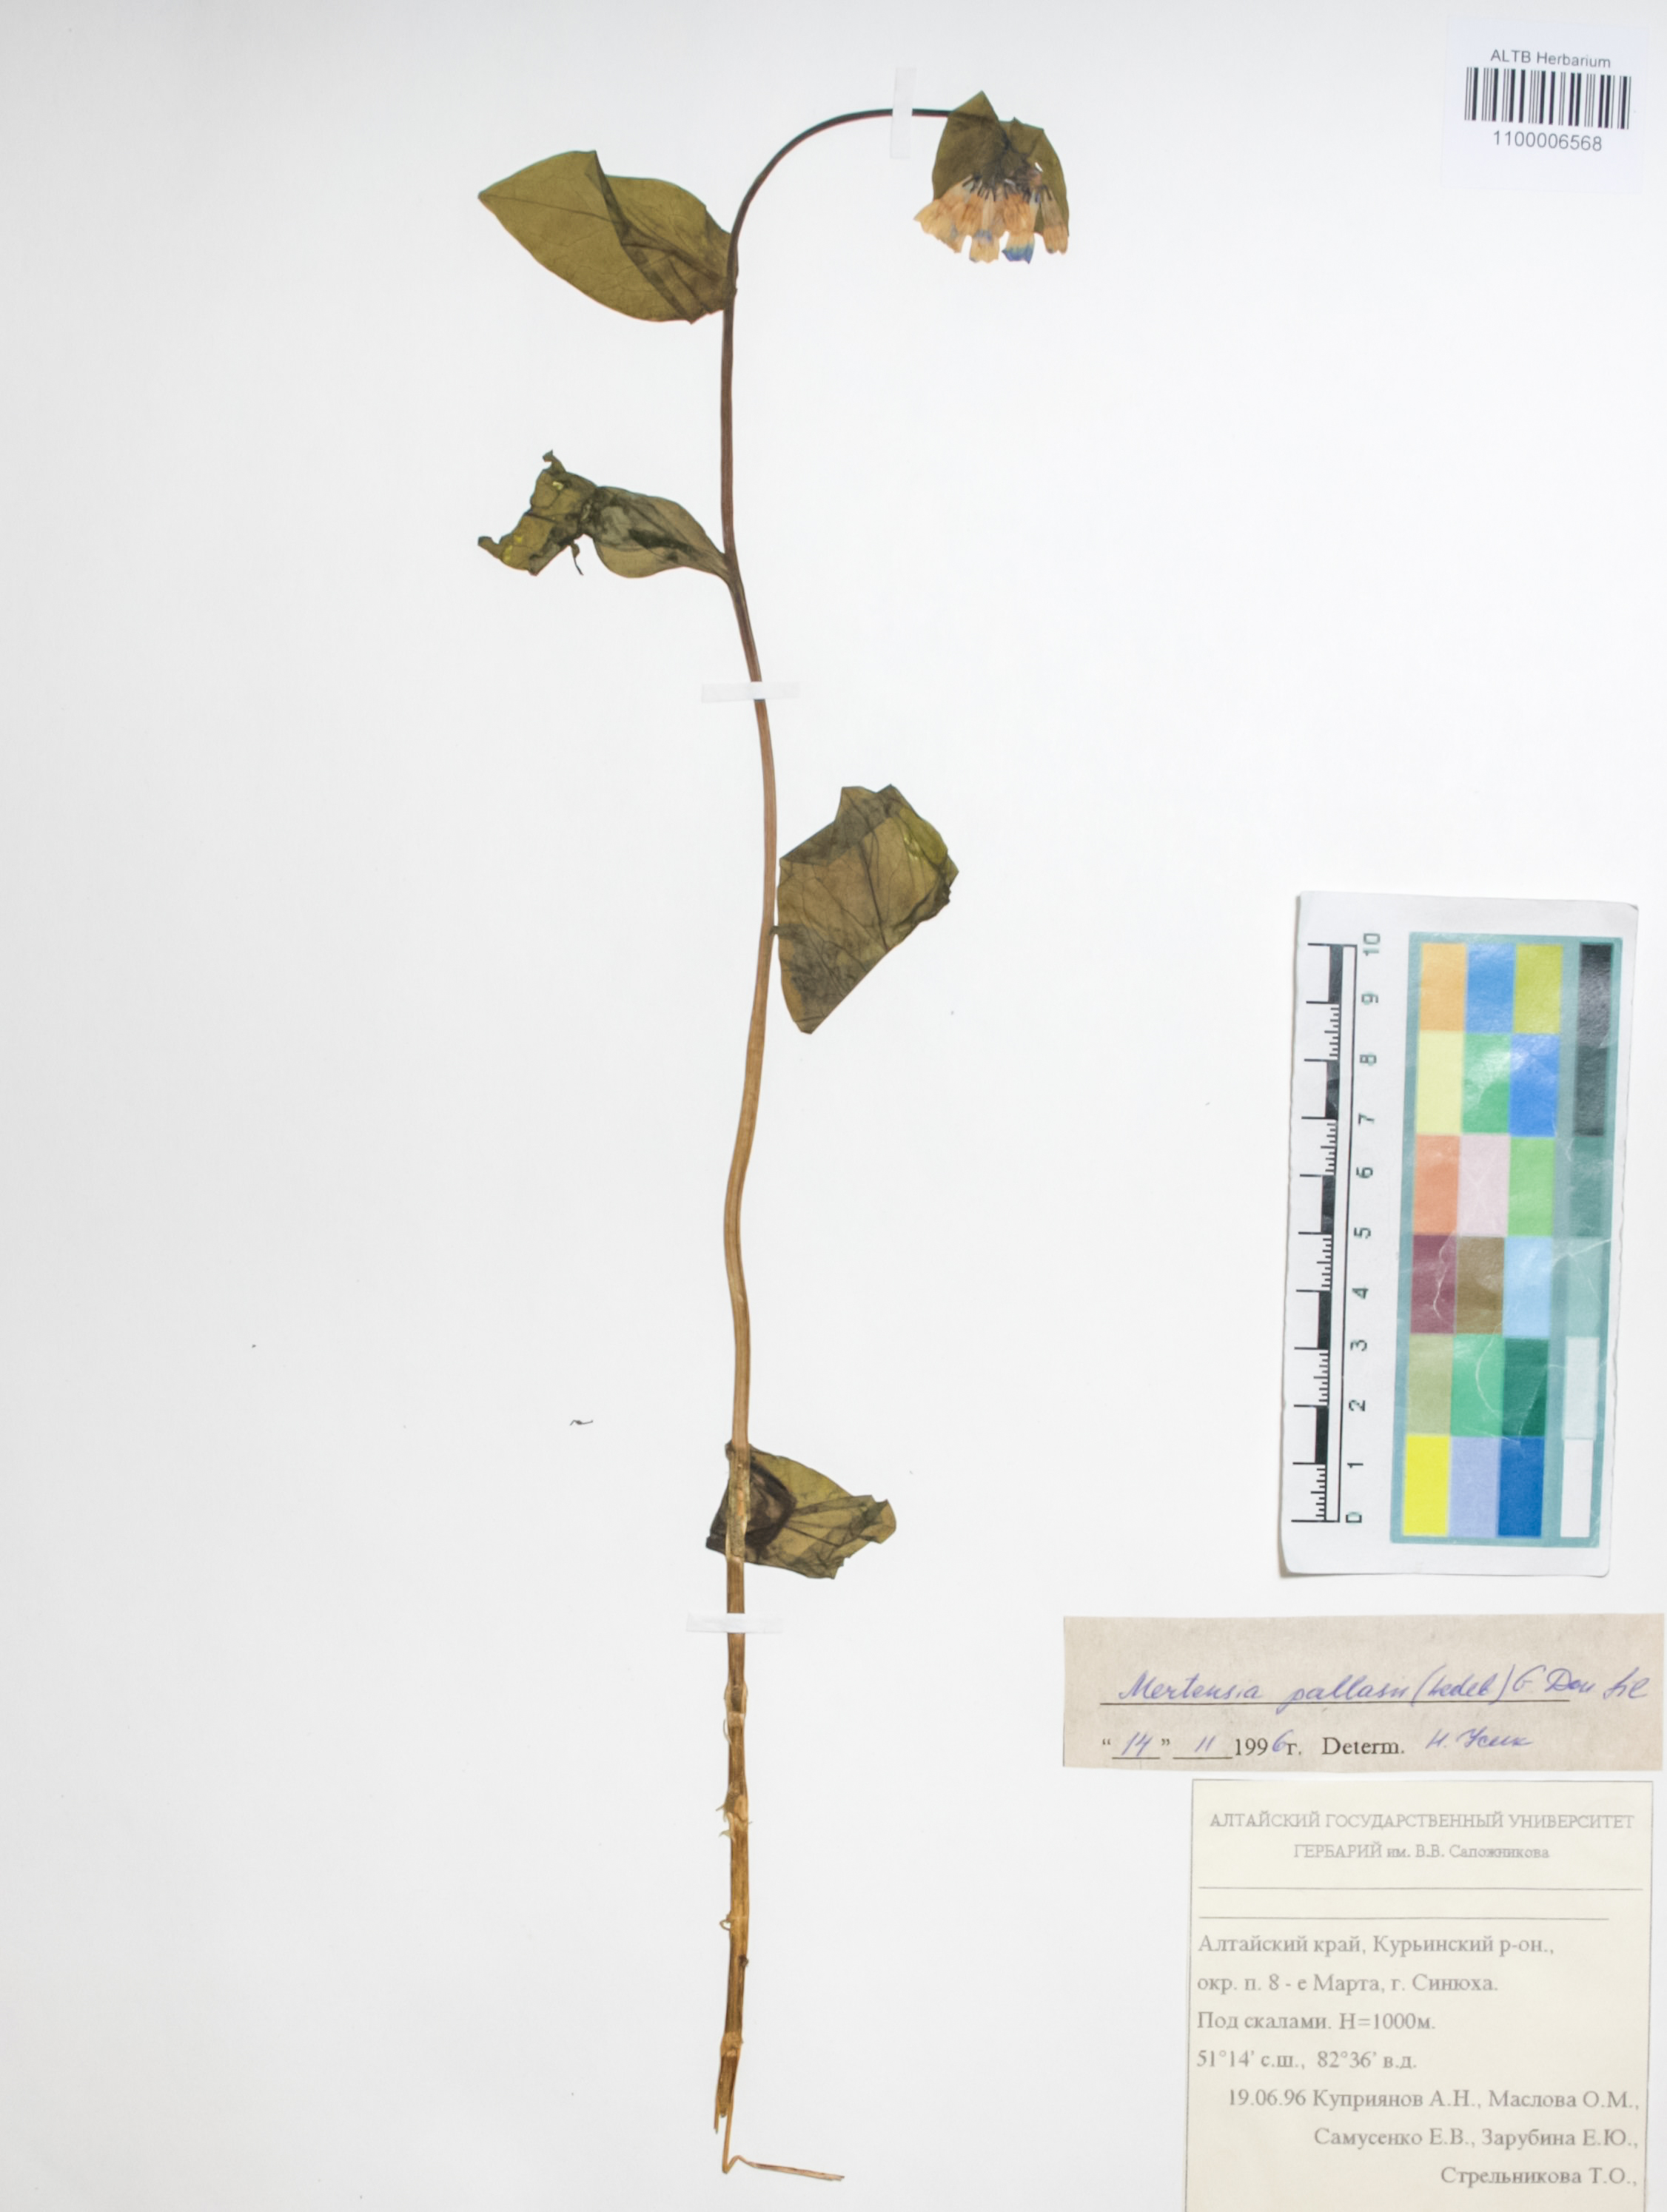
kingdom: Plantae
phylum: Tracheophyta
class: Magnoliopsida
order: Boraginales
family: Boraginaceae
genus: Mertensia
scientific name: Mertensia pallasii
